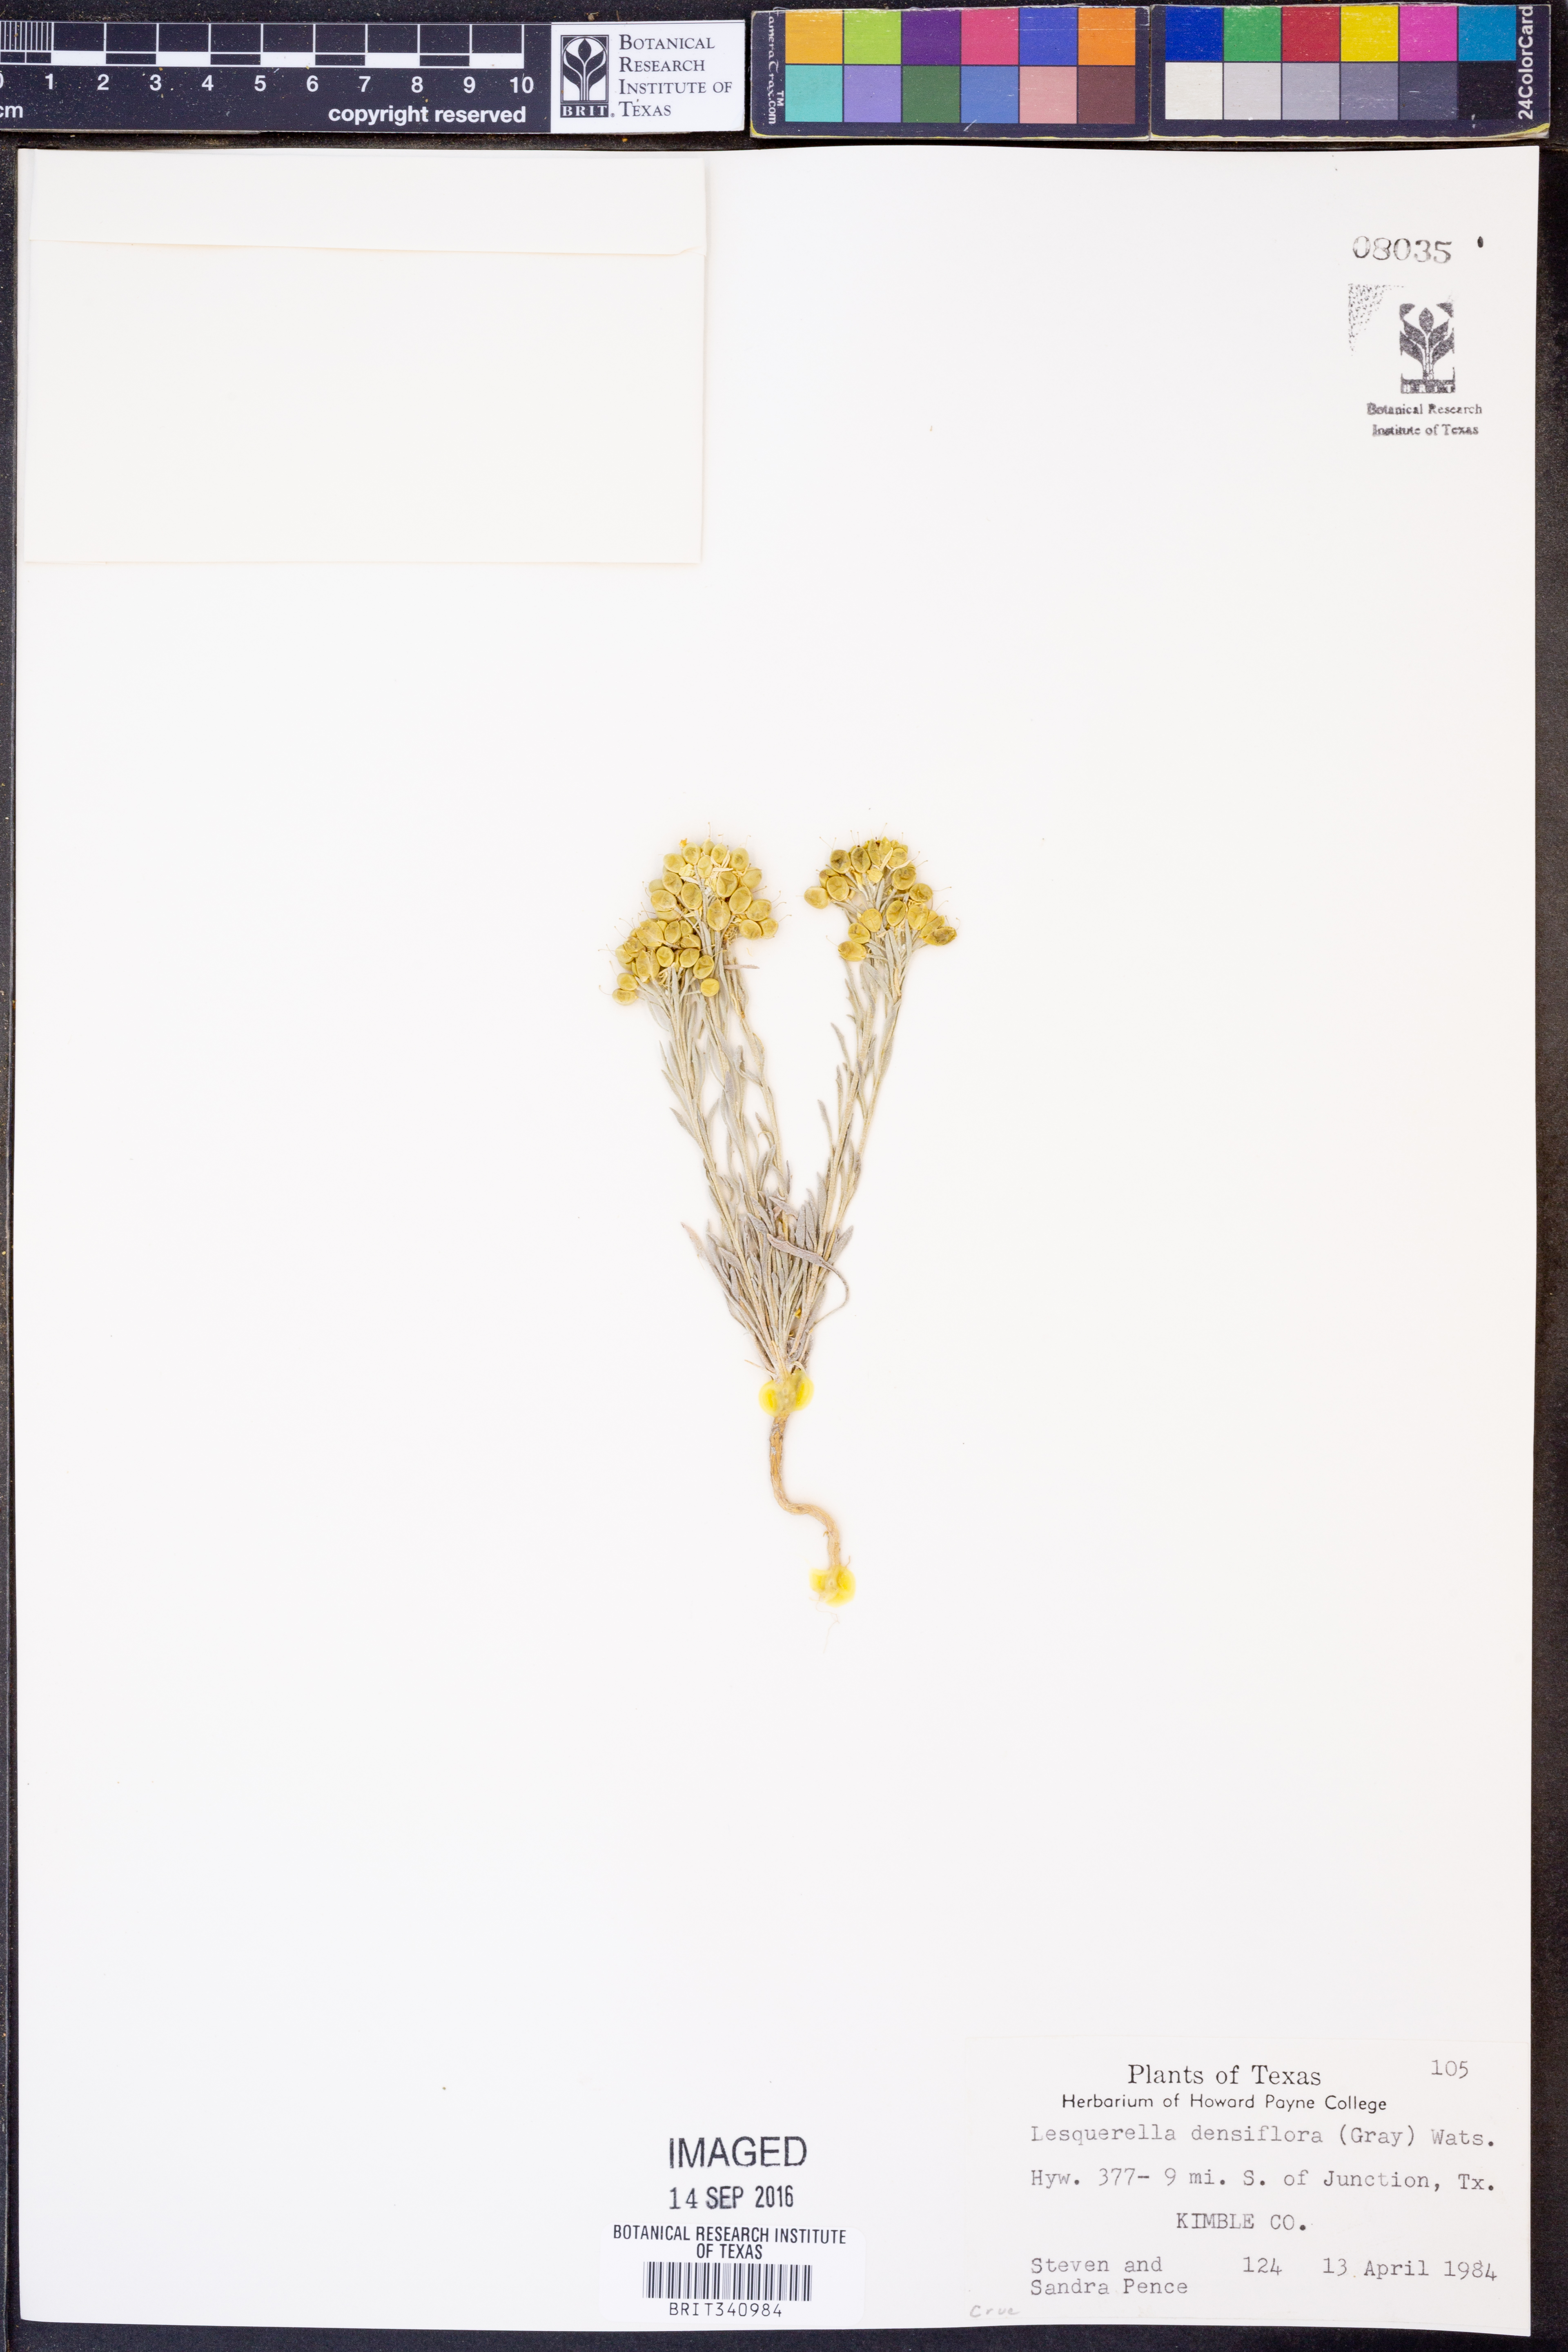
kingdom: Plantae
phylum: Tracheophyta
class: Magnoliopsida
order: Brassicales
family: Brassicaceae
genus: Physaria
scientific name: Physaria densiflora
